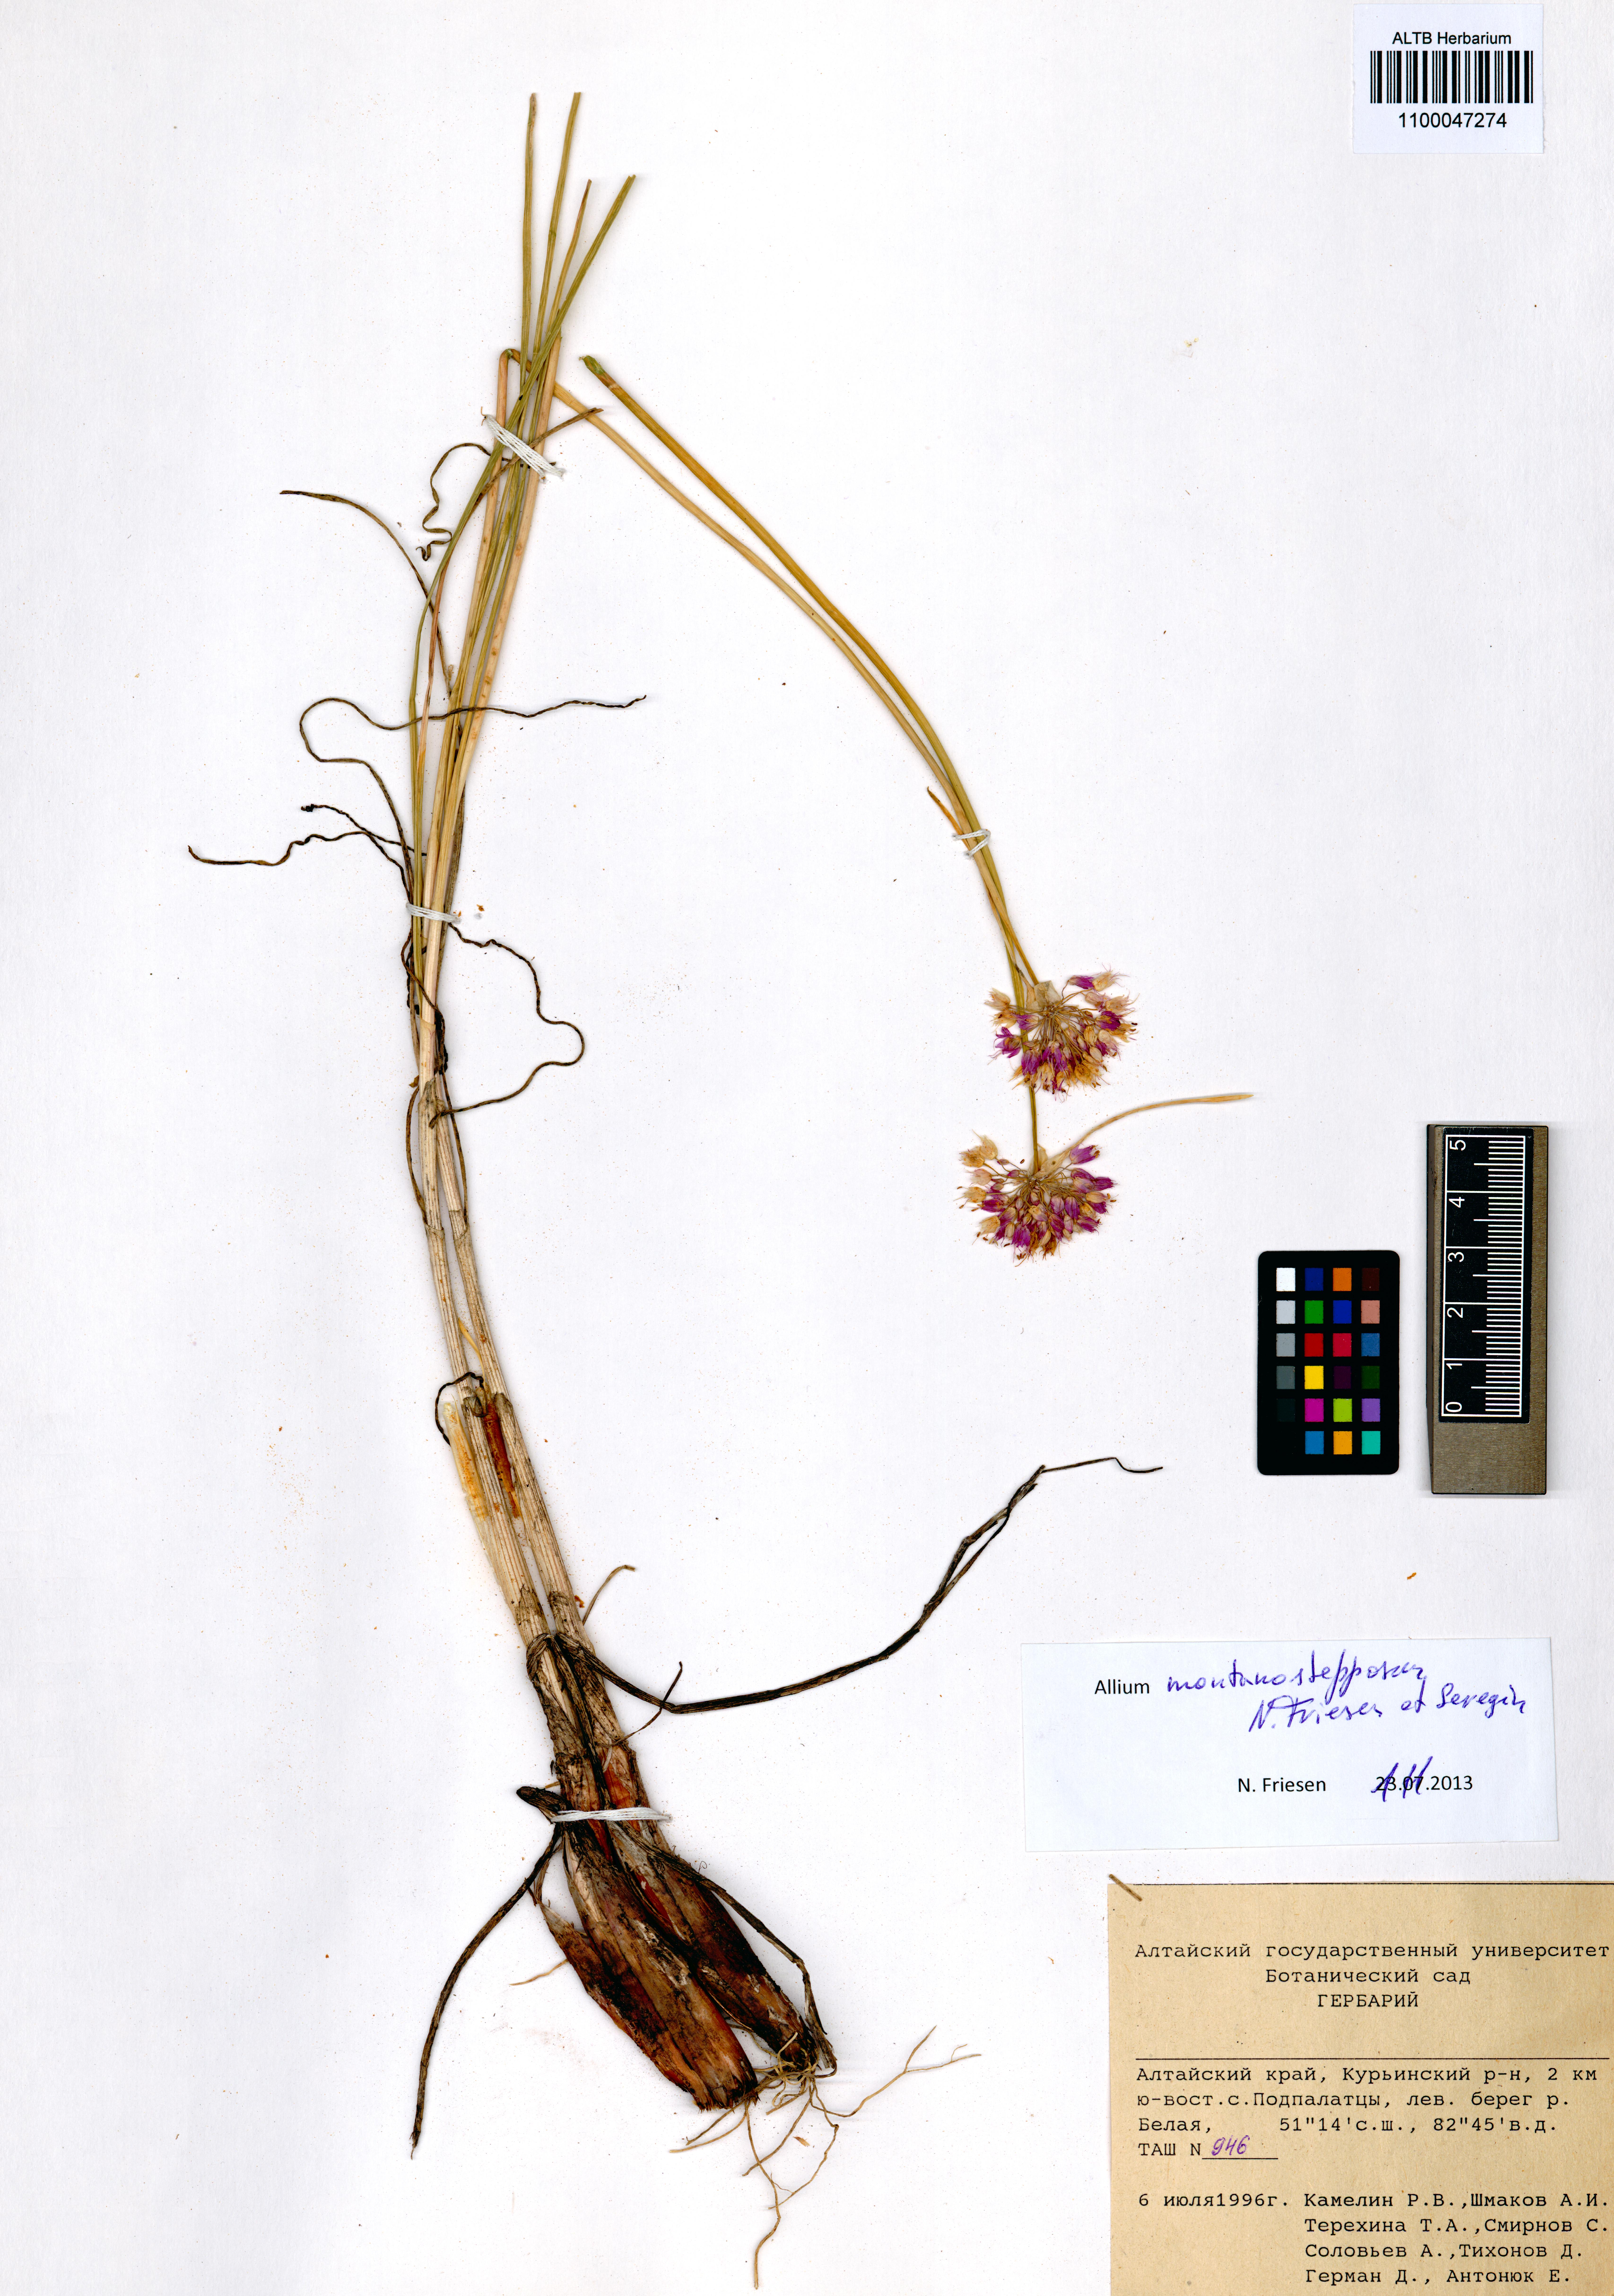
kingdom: Plantae
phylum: Tracheophyta
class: Liliopsida
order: Asparagales
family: Amaryllidaceae
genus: Allium
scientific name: Allium montanostepposum
